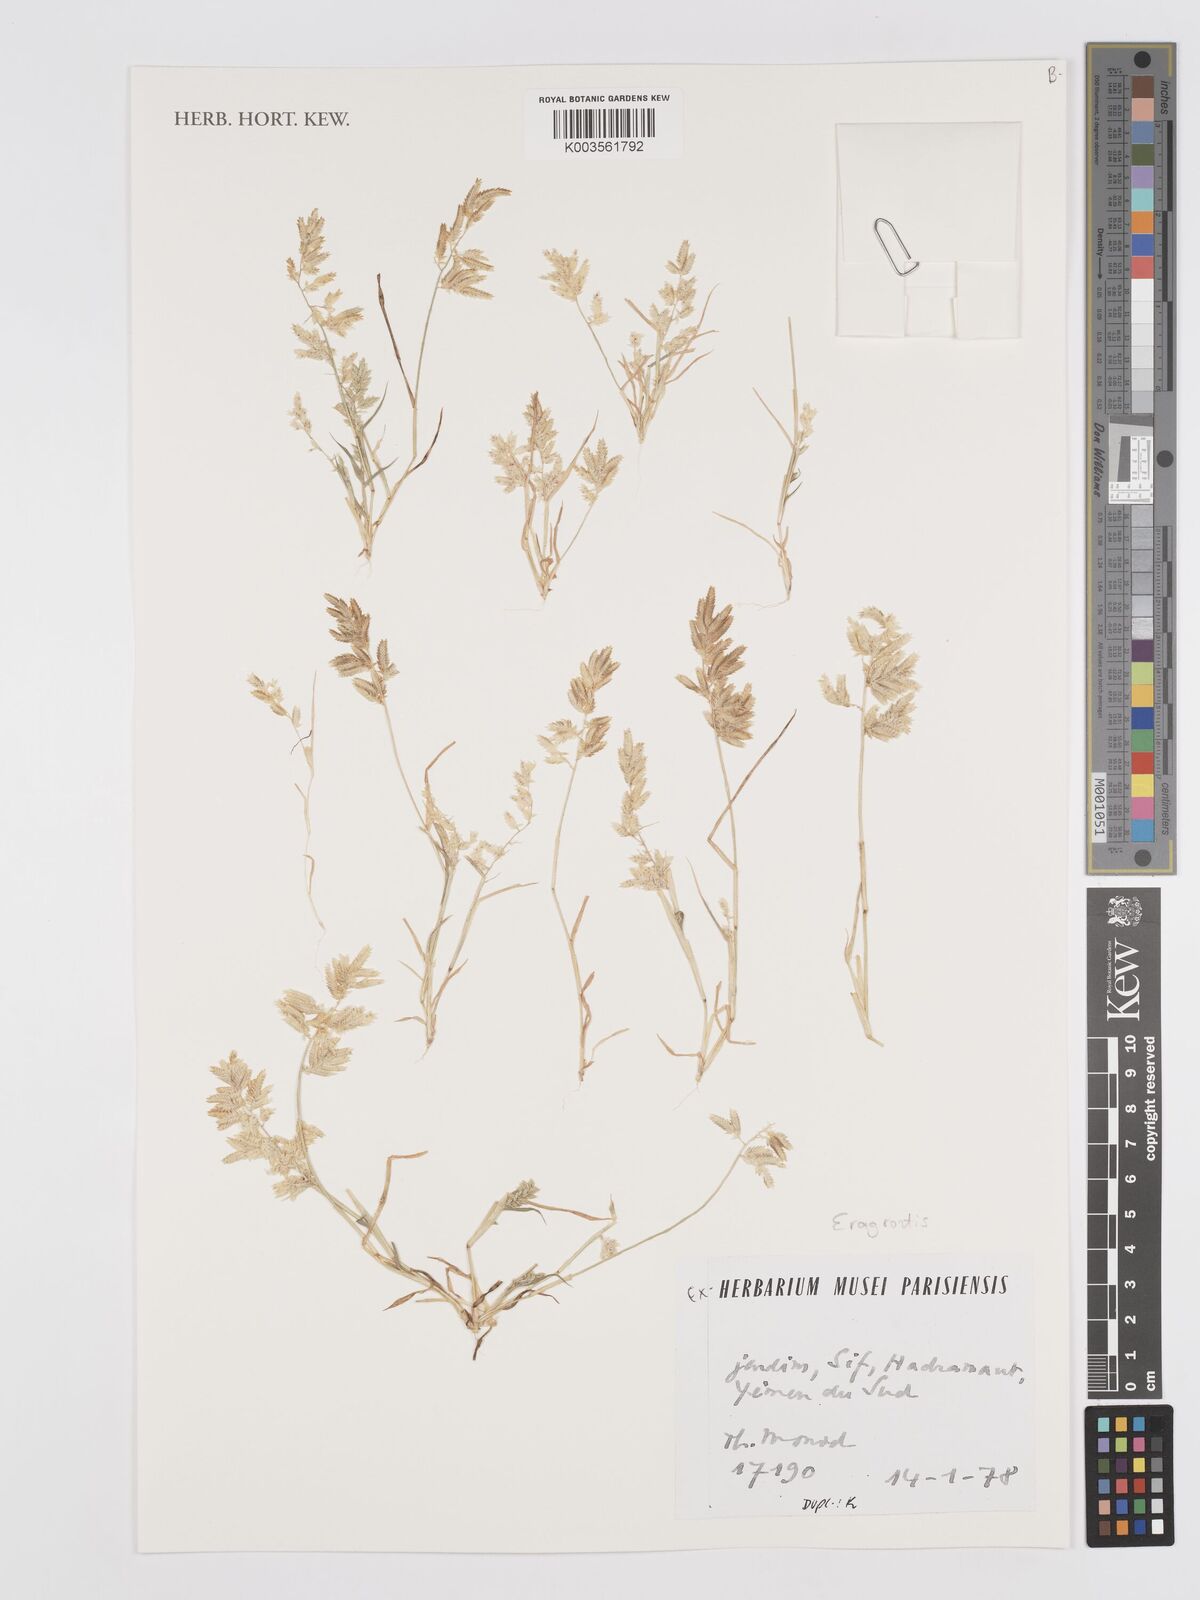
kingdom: Plantae
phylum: Tracheophyta
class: Liliopsida
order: Poales
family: Poaceae
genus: Eragrostis
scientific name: Eragrostis
